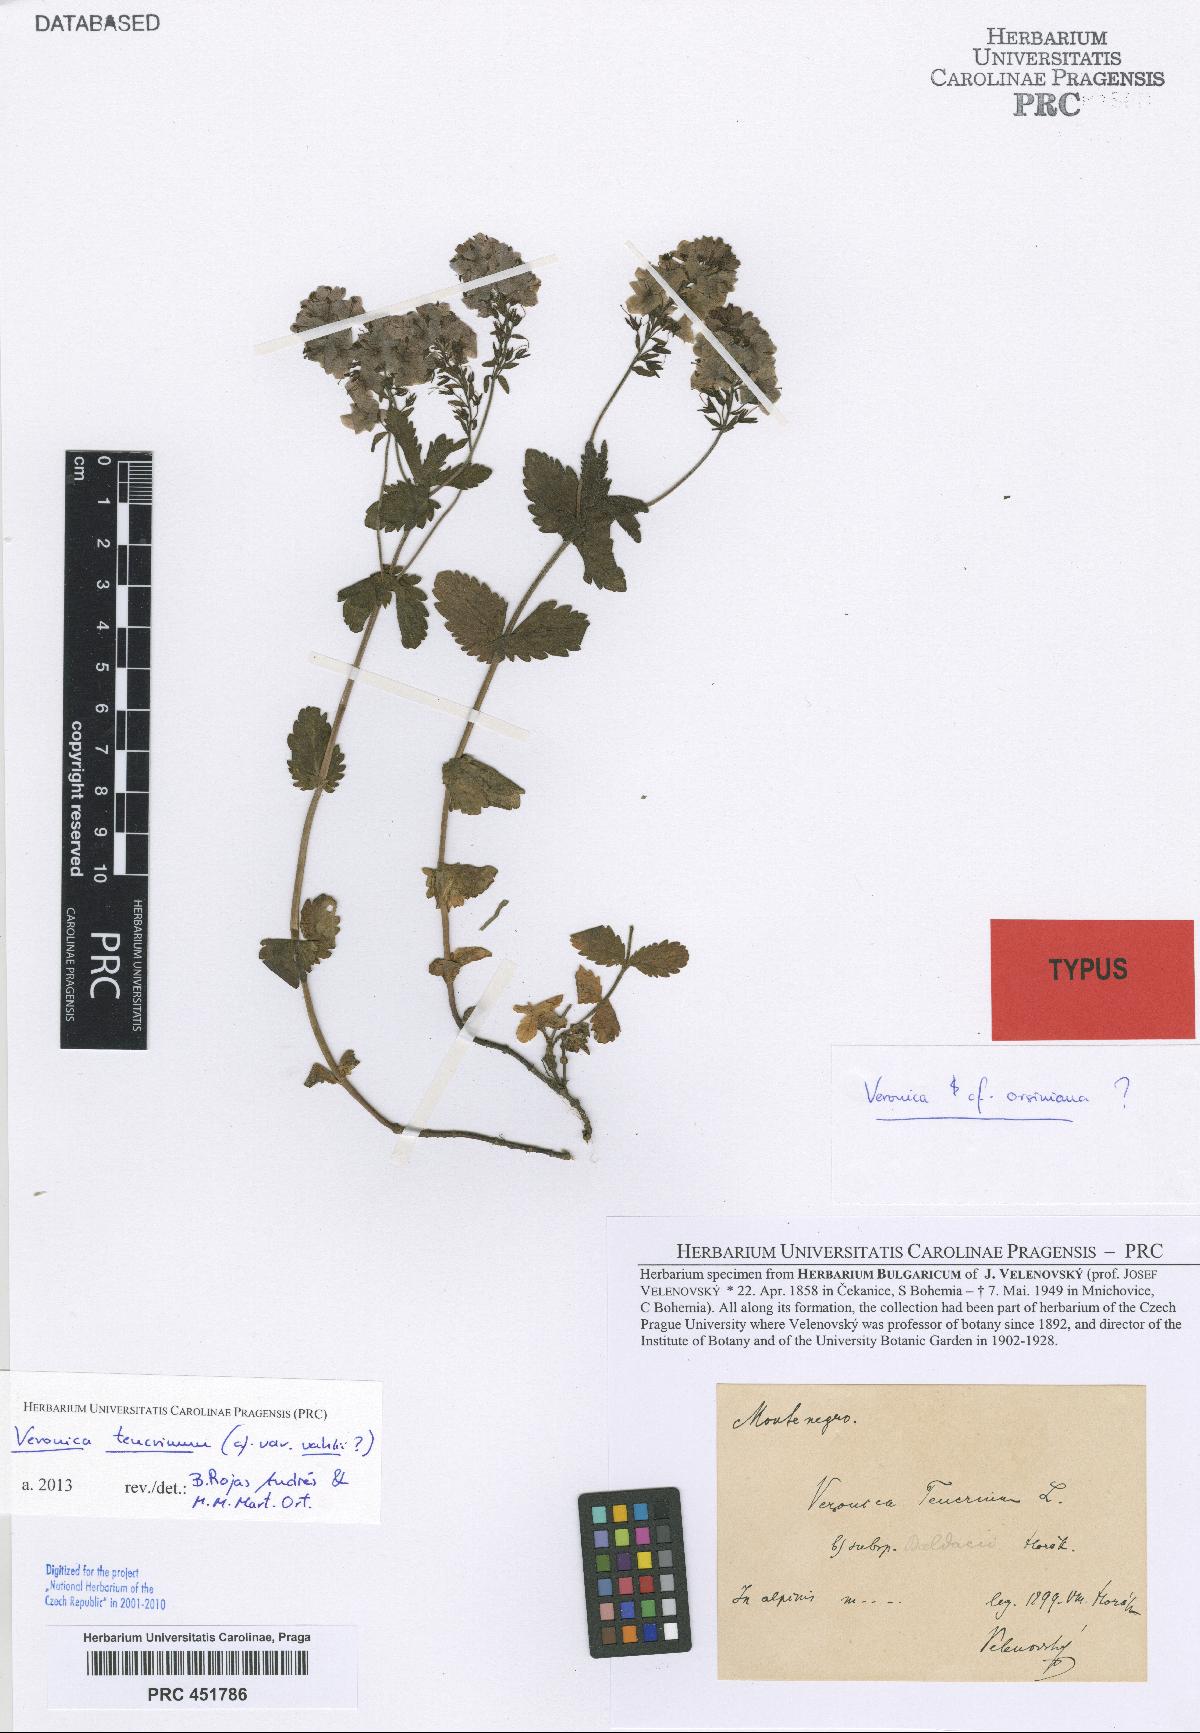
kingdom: Plantae
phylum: Tracheophyta
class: Magnoliopsida
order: Lamiales
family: Plantaginaceae
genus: Veronica
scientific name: Veronica teucrium
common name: Large speedwell
